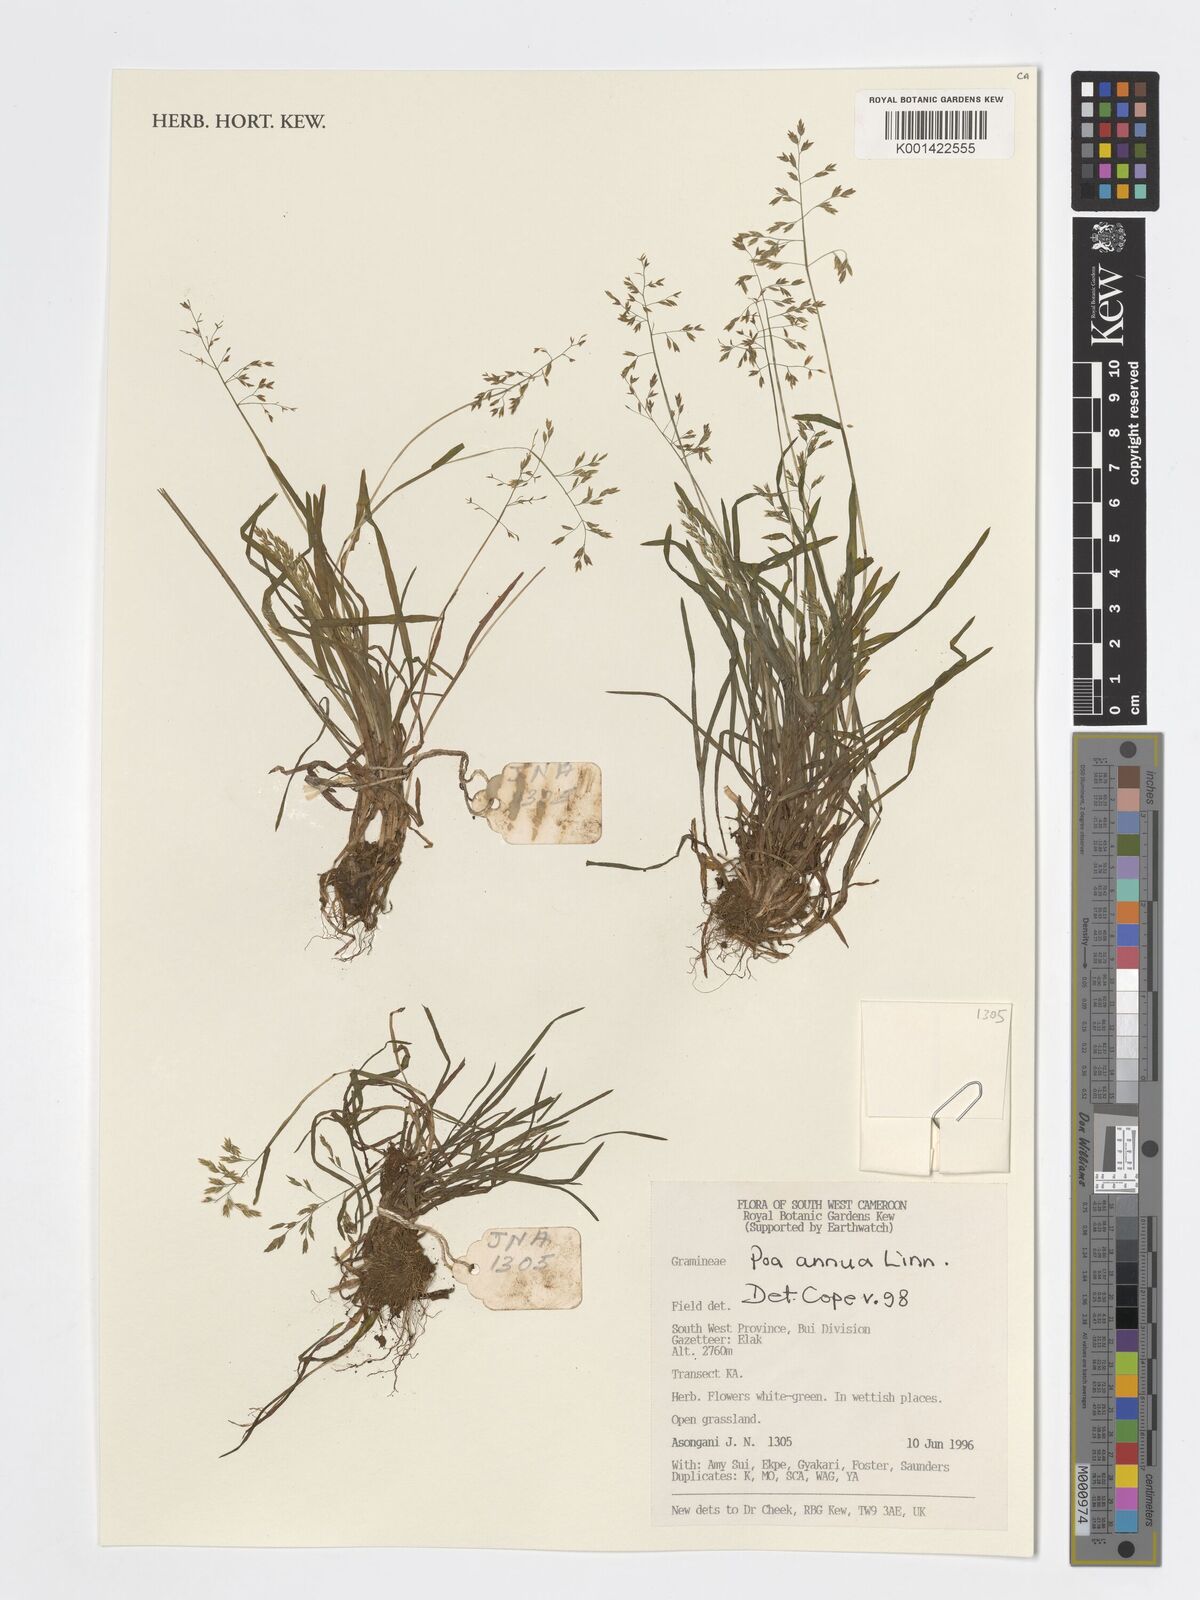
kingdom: Plantae
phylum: Tracheophyta
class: Liliopsida
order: Poales
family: Poaceae
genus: Poa
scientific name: Poa annua
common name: Annual bluegrass
